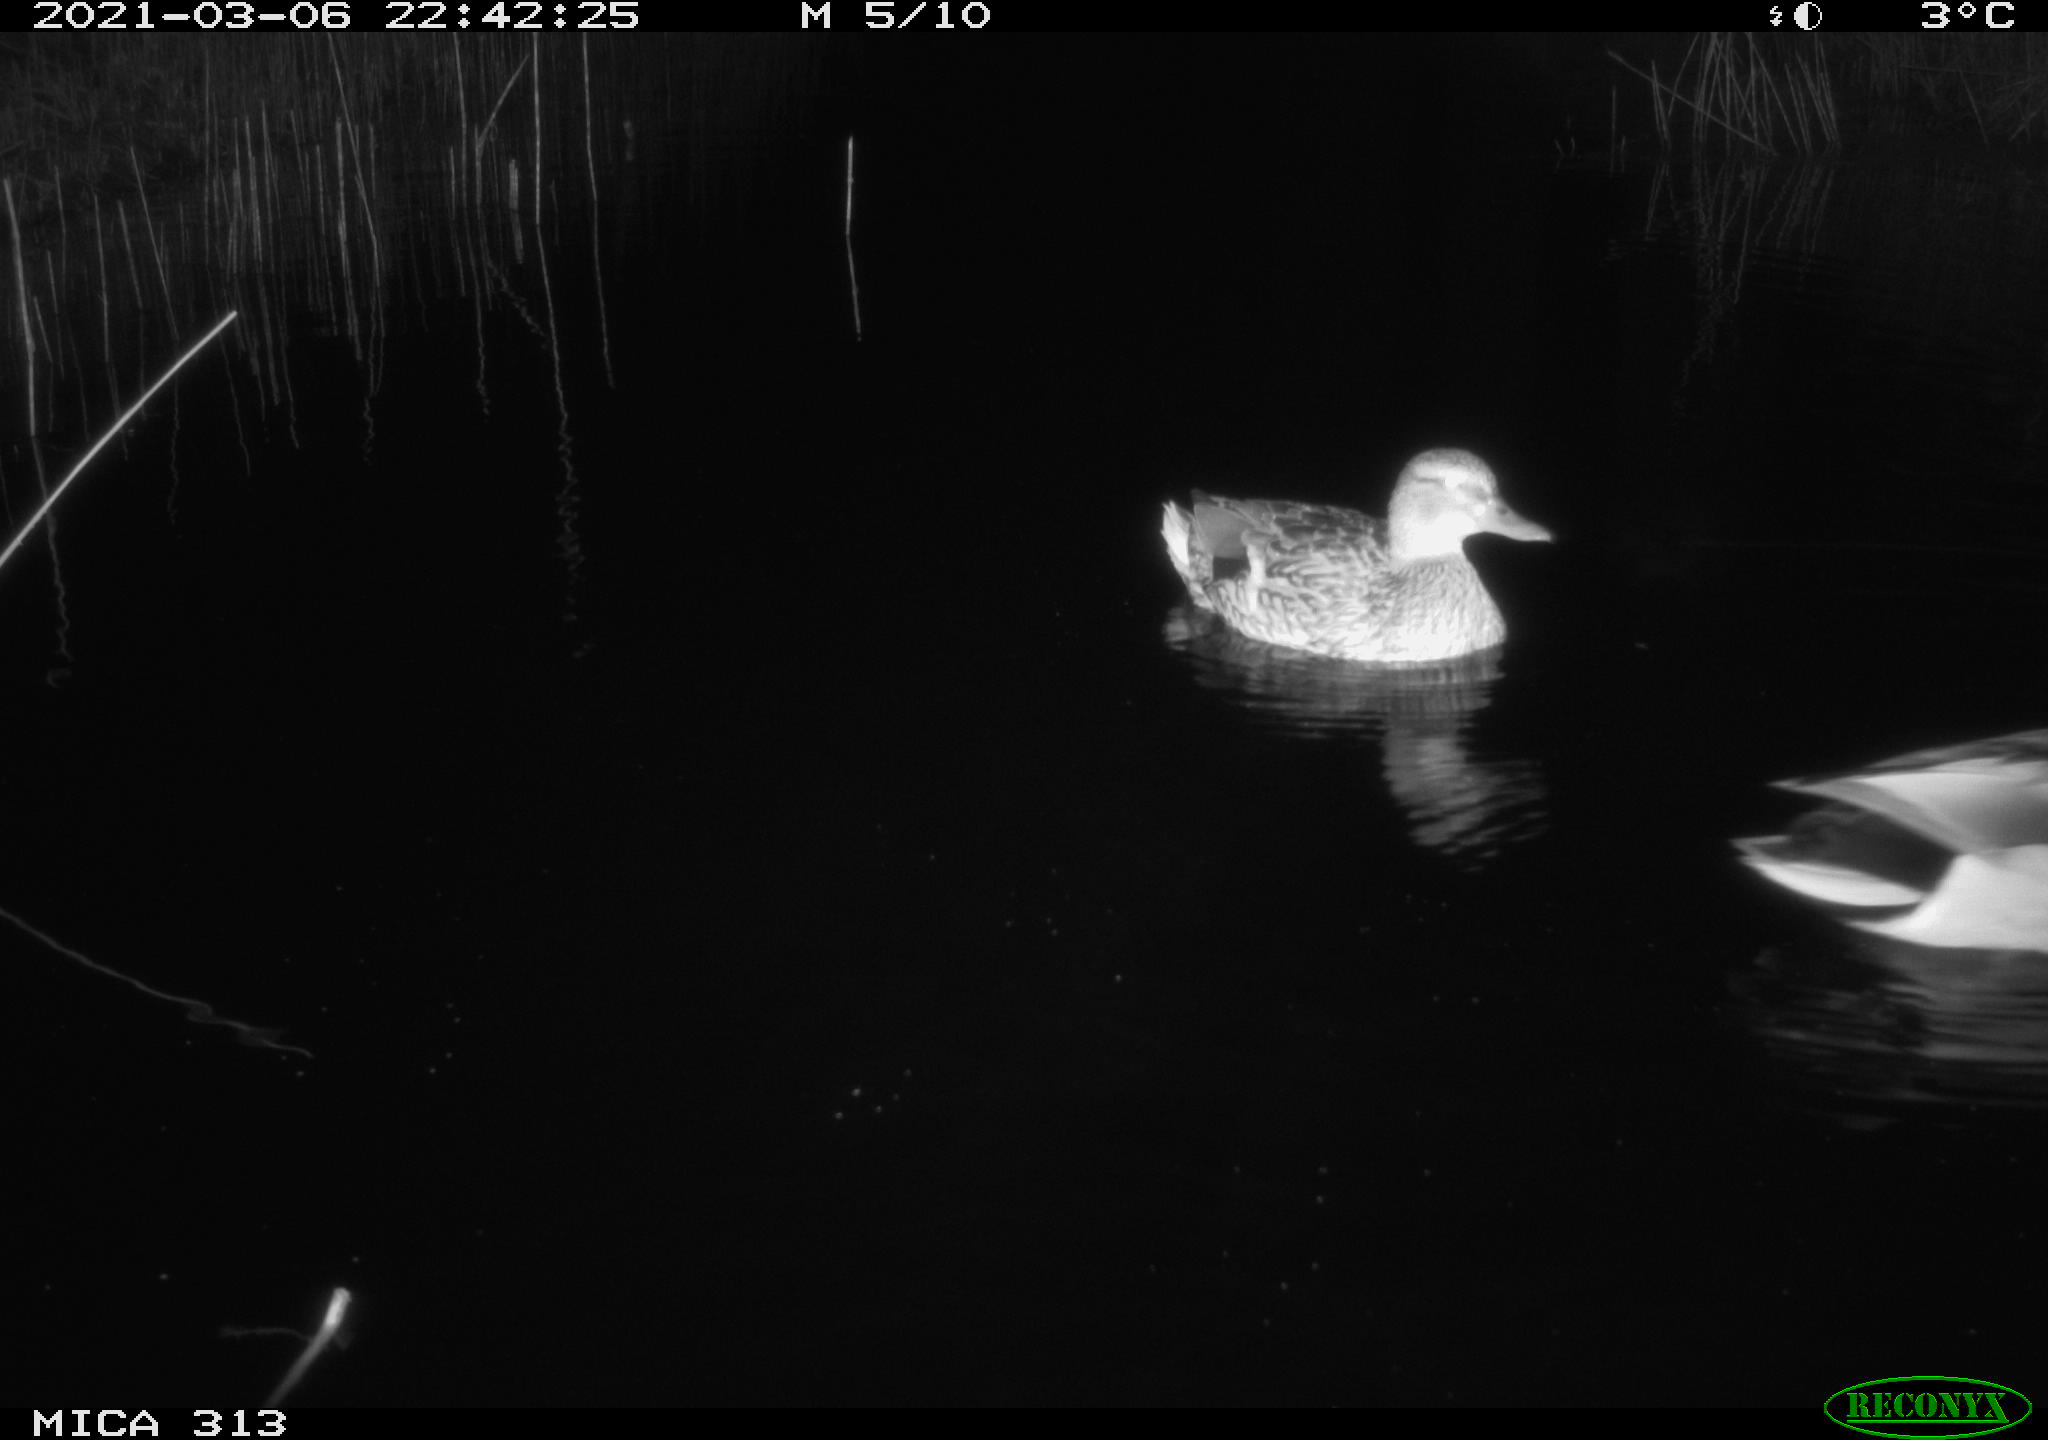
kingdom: Animalia
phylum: Chordata
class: Aves
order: Anseriformes
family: Anatidae
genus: Anas
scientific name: Anas platyrhynchos
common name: Mallard
